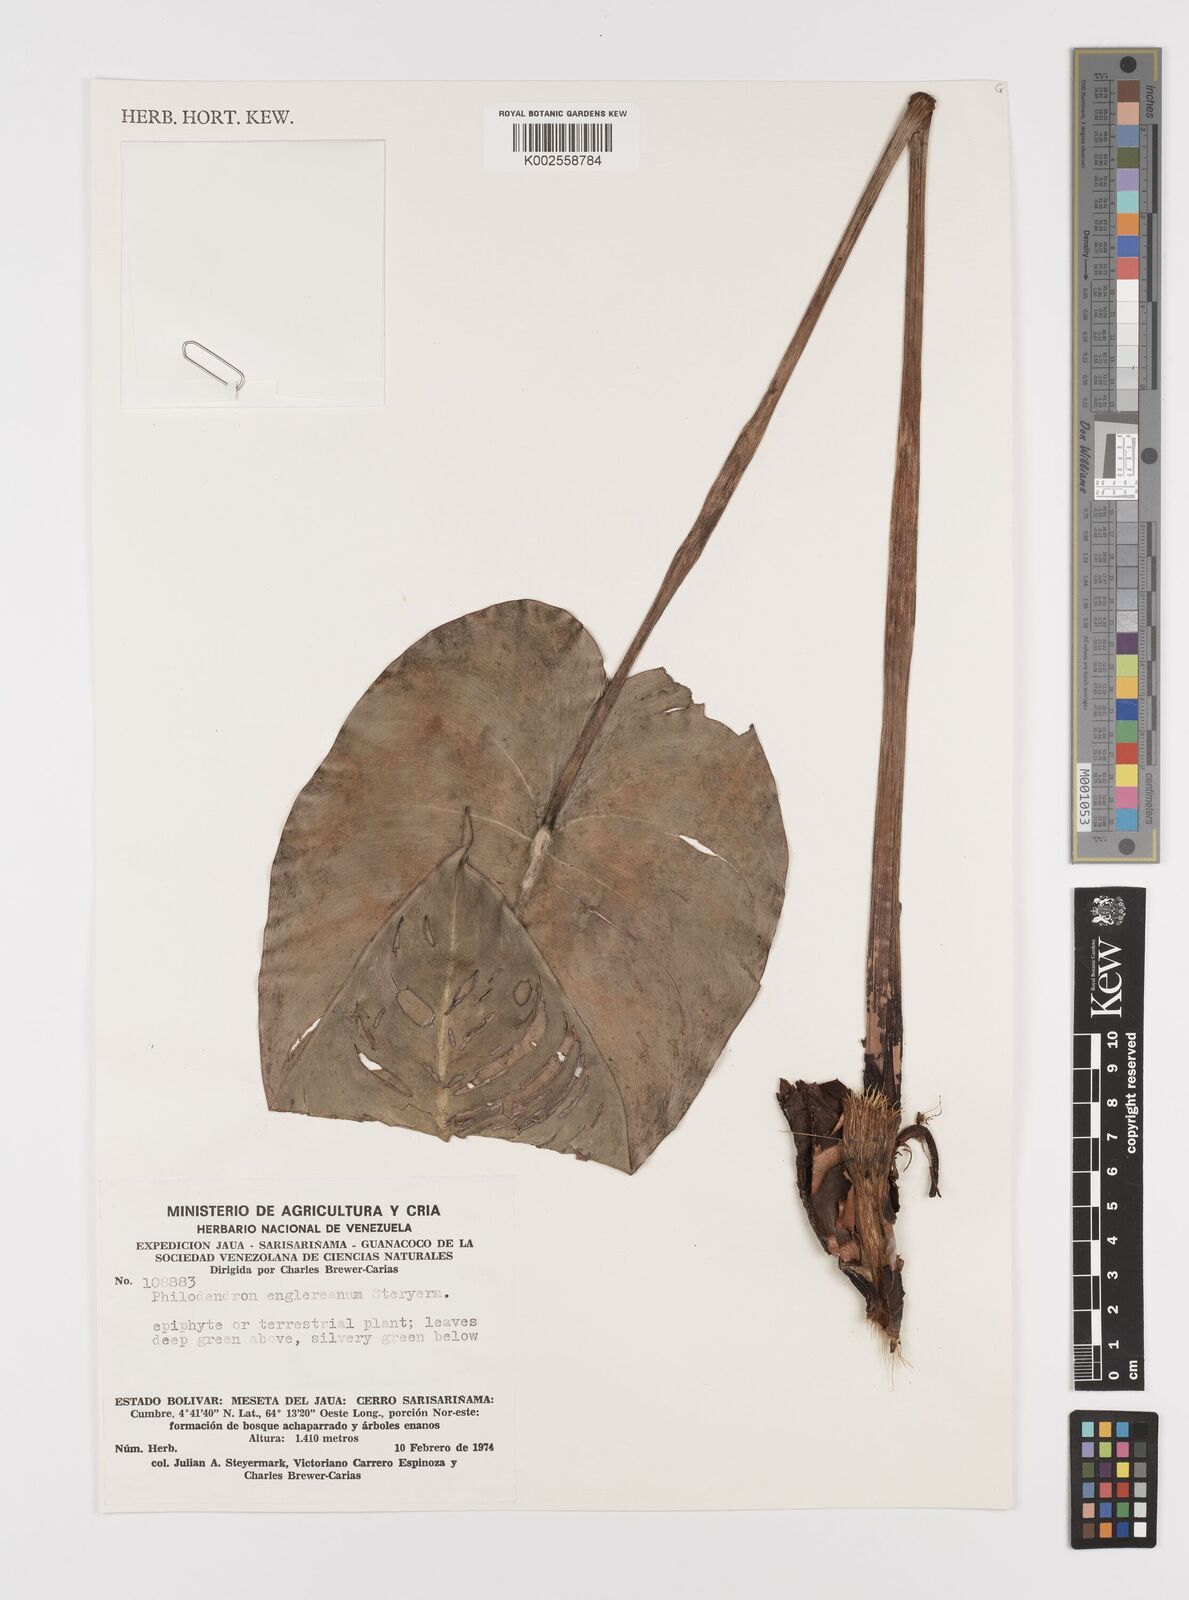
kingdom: Plantae
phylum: Tracheophyta
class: Liliopsida
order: Alismatales
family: Araceae
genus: Philodendron
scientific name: Philodendron englerianum
